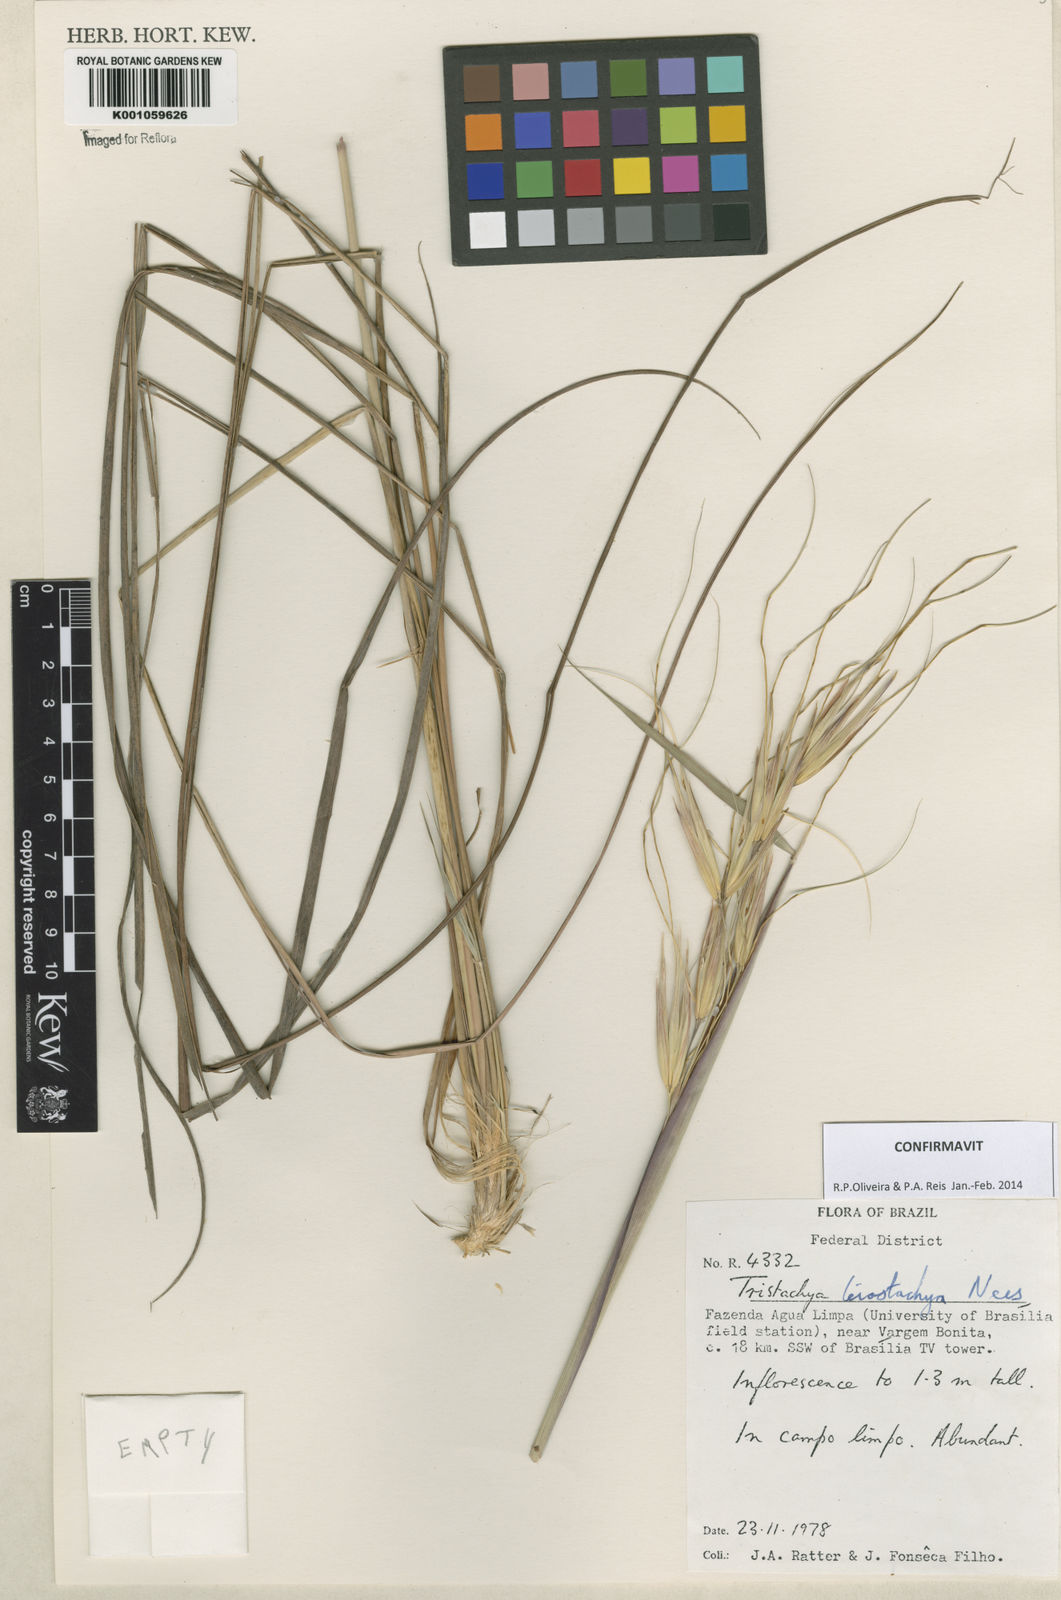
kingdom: Plantae
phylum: Tracheophyta
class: Liliopsida
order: Poales
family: Poaceae
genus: Tristachya
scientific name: Tristachya leiostachya
